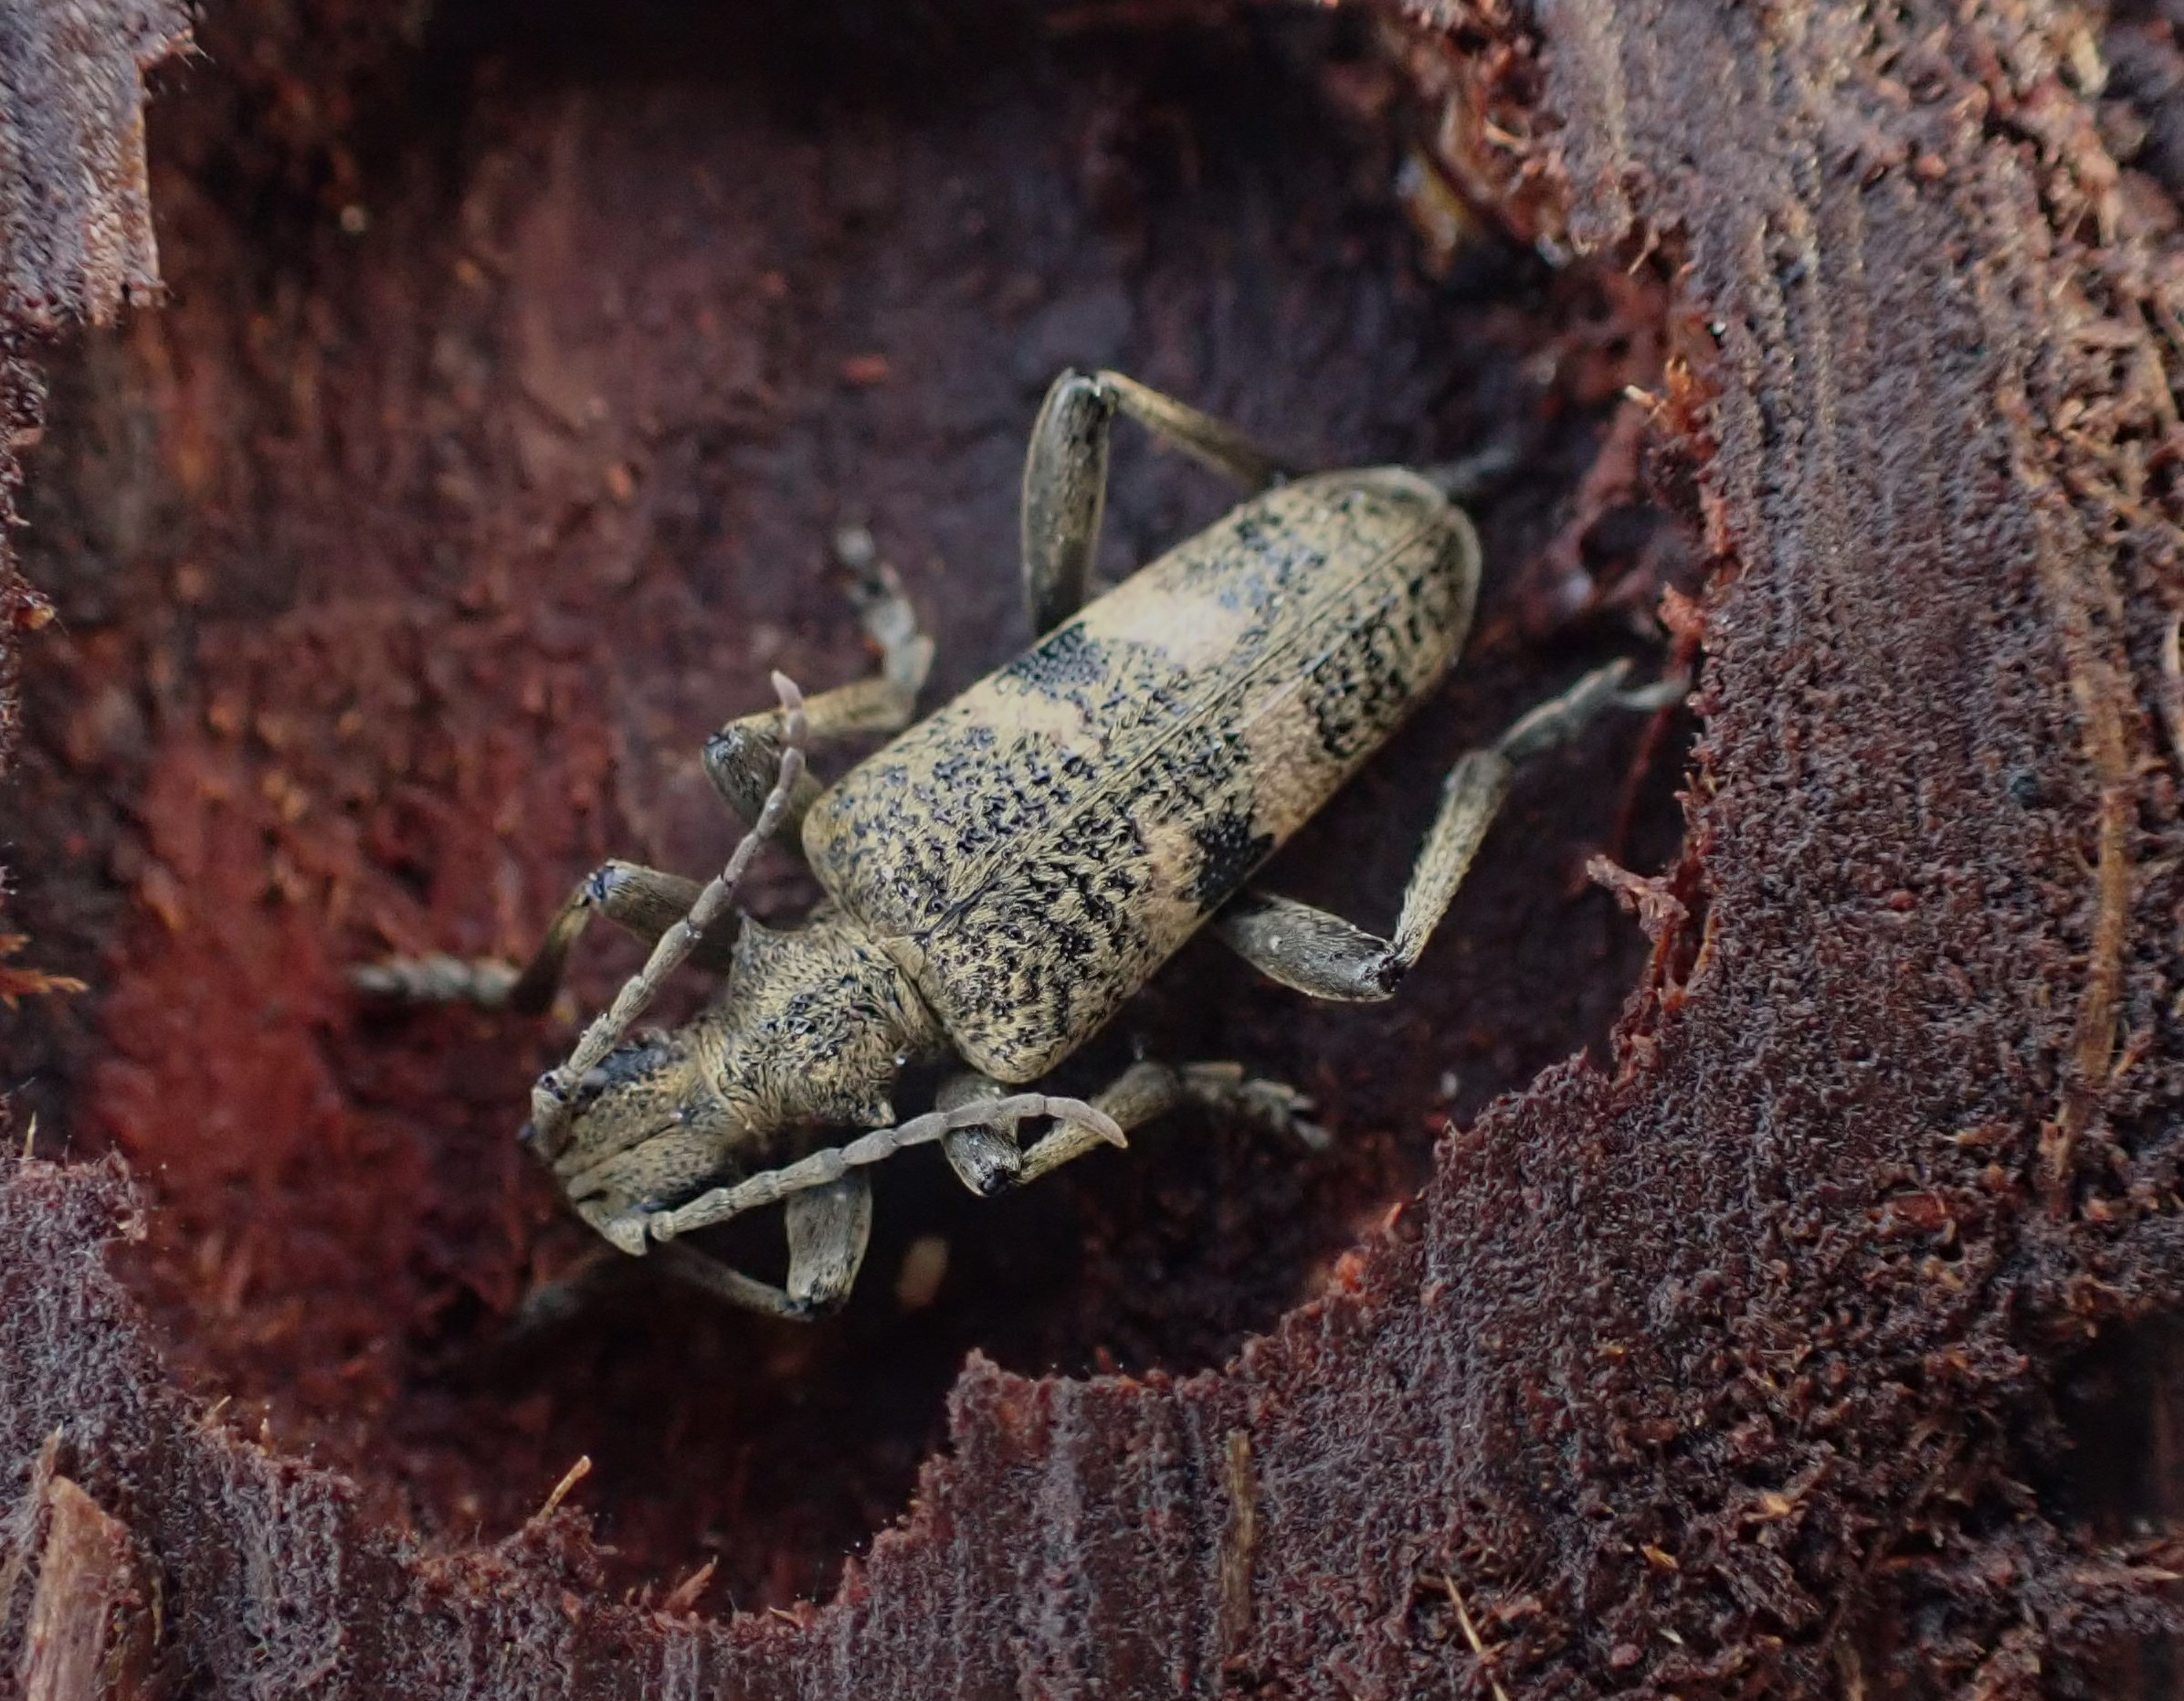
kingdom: Animalia
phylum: Arthropoda
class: Insecta
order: Coleoptera
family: Cerambycidae
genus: Rhagium
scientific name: Rhagium mordax
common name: Blankplettet tandbuk
